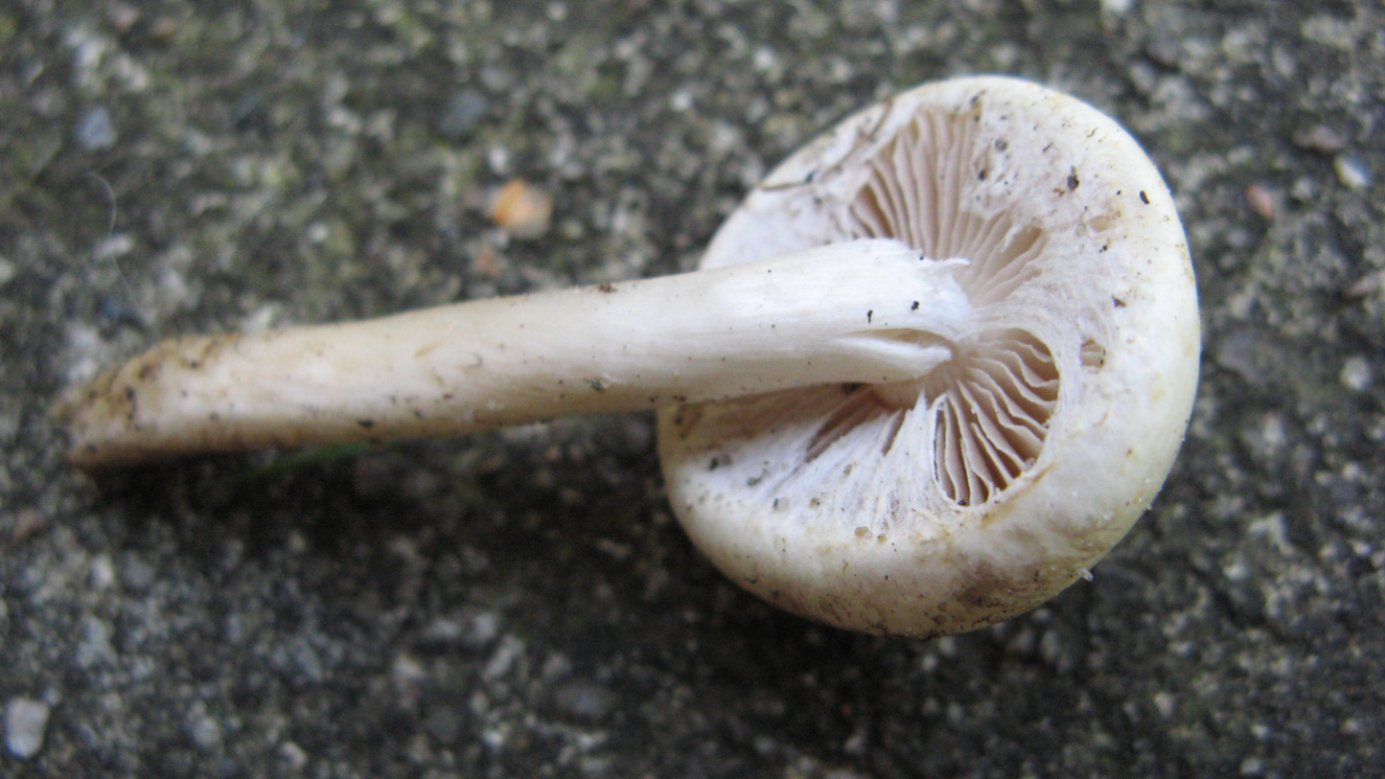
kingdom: Fungi
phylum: Basidiomycota
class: Agaricomycetes
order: Agaricales
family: Strophariaceae
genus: Agrocybe
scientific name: Agrocybe dura
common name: fastkødet agerhat
